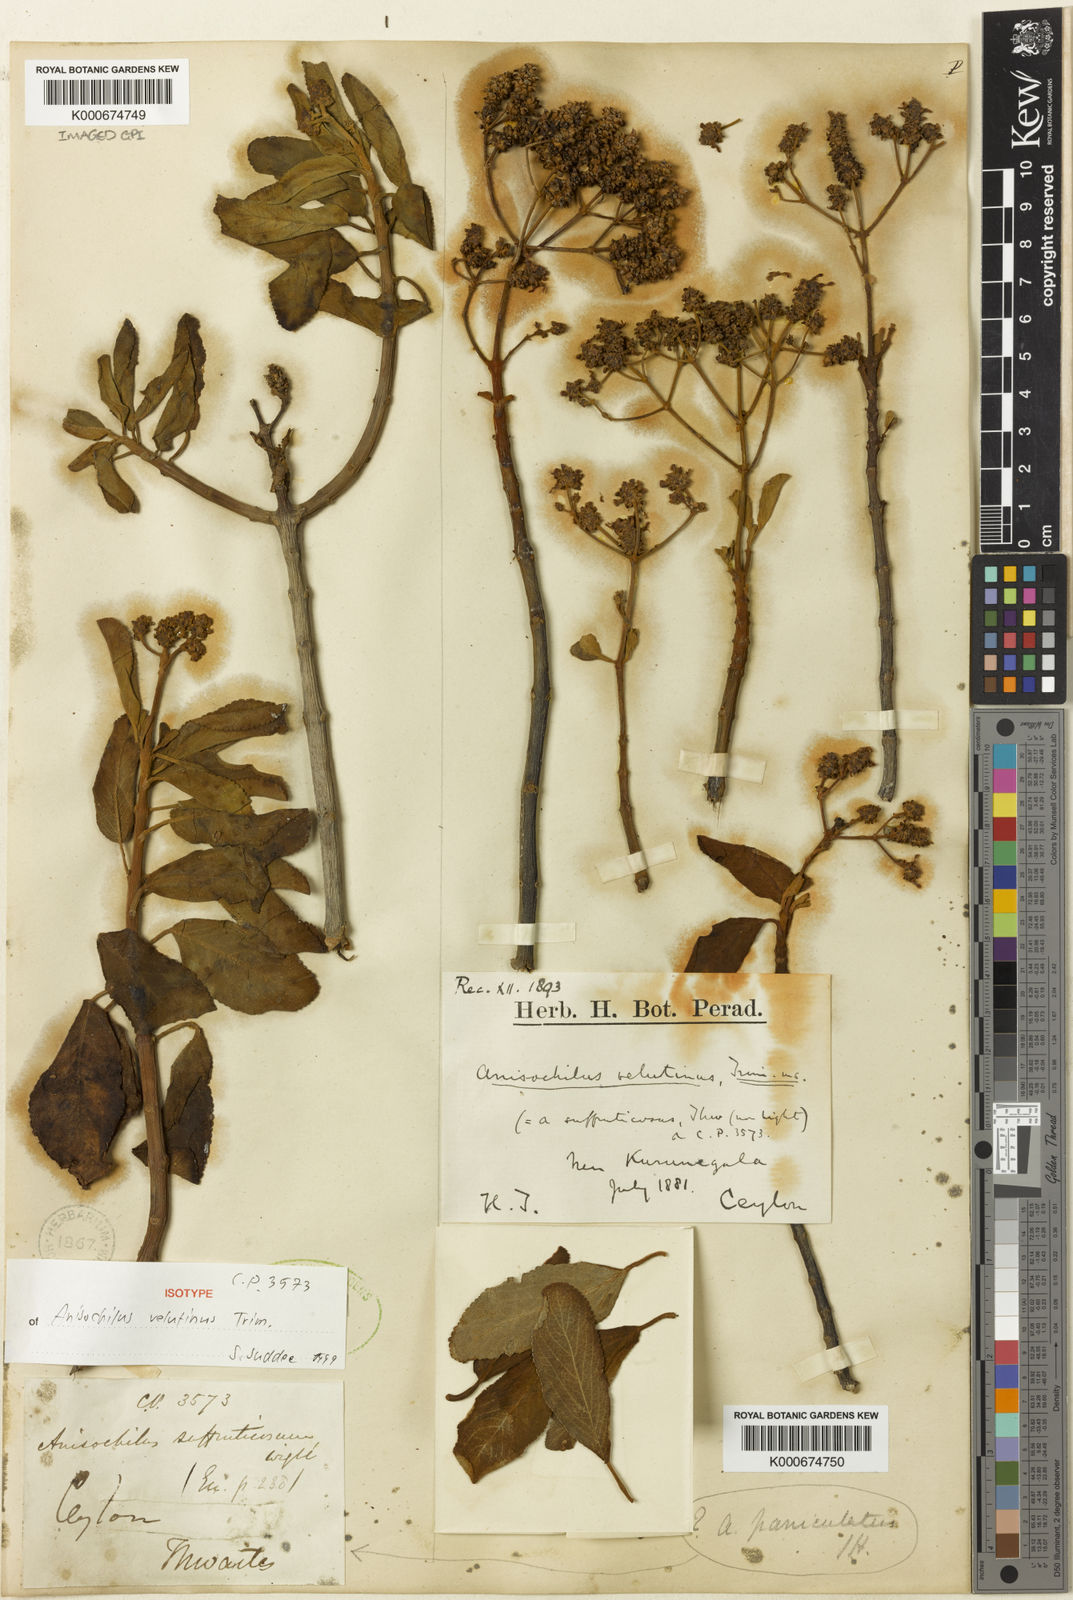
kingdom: Plantae
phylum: Tracheophyta
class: Magnoliopsida
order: Lamiales
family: Lamiaceae
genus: Coleus
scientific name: Coleus velutinus
